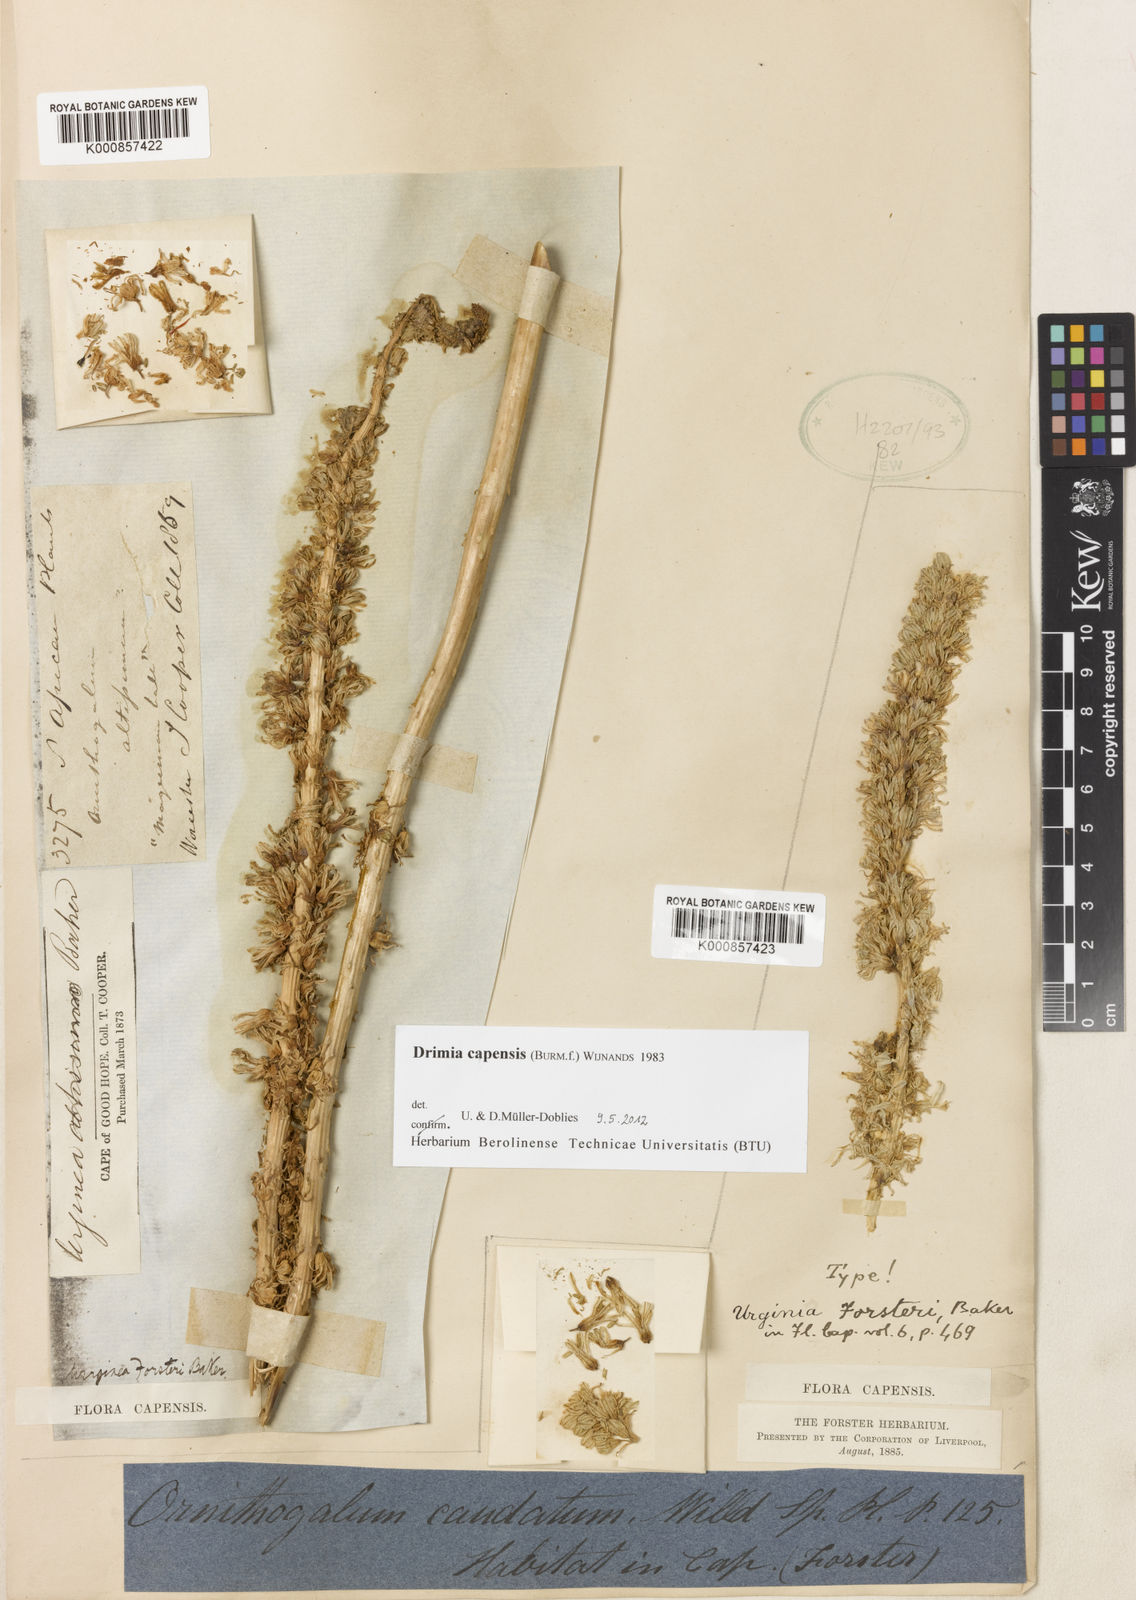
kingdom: Plantae
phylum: Tracheophyta
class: Liliopsida
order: Asparagales
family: Asparagaceae
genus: Drimia
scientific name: Drimia capensis
